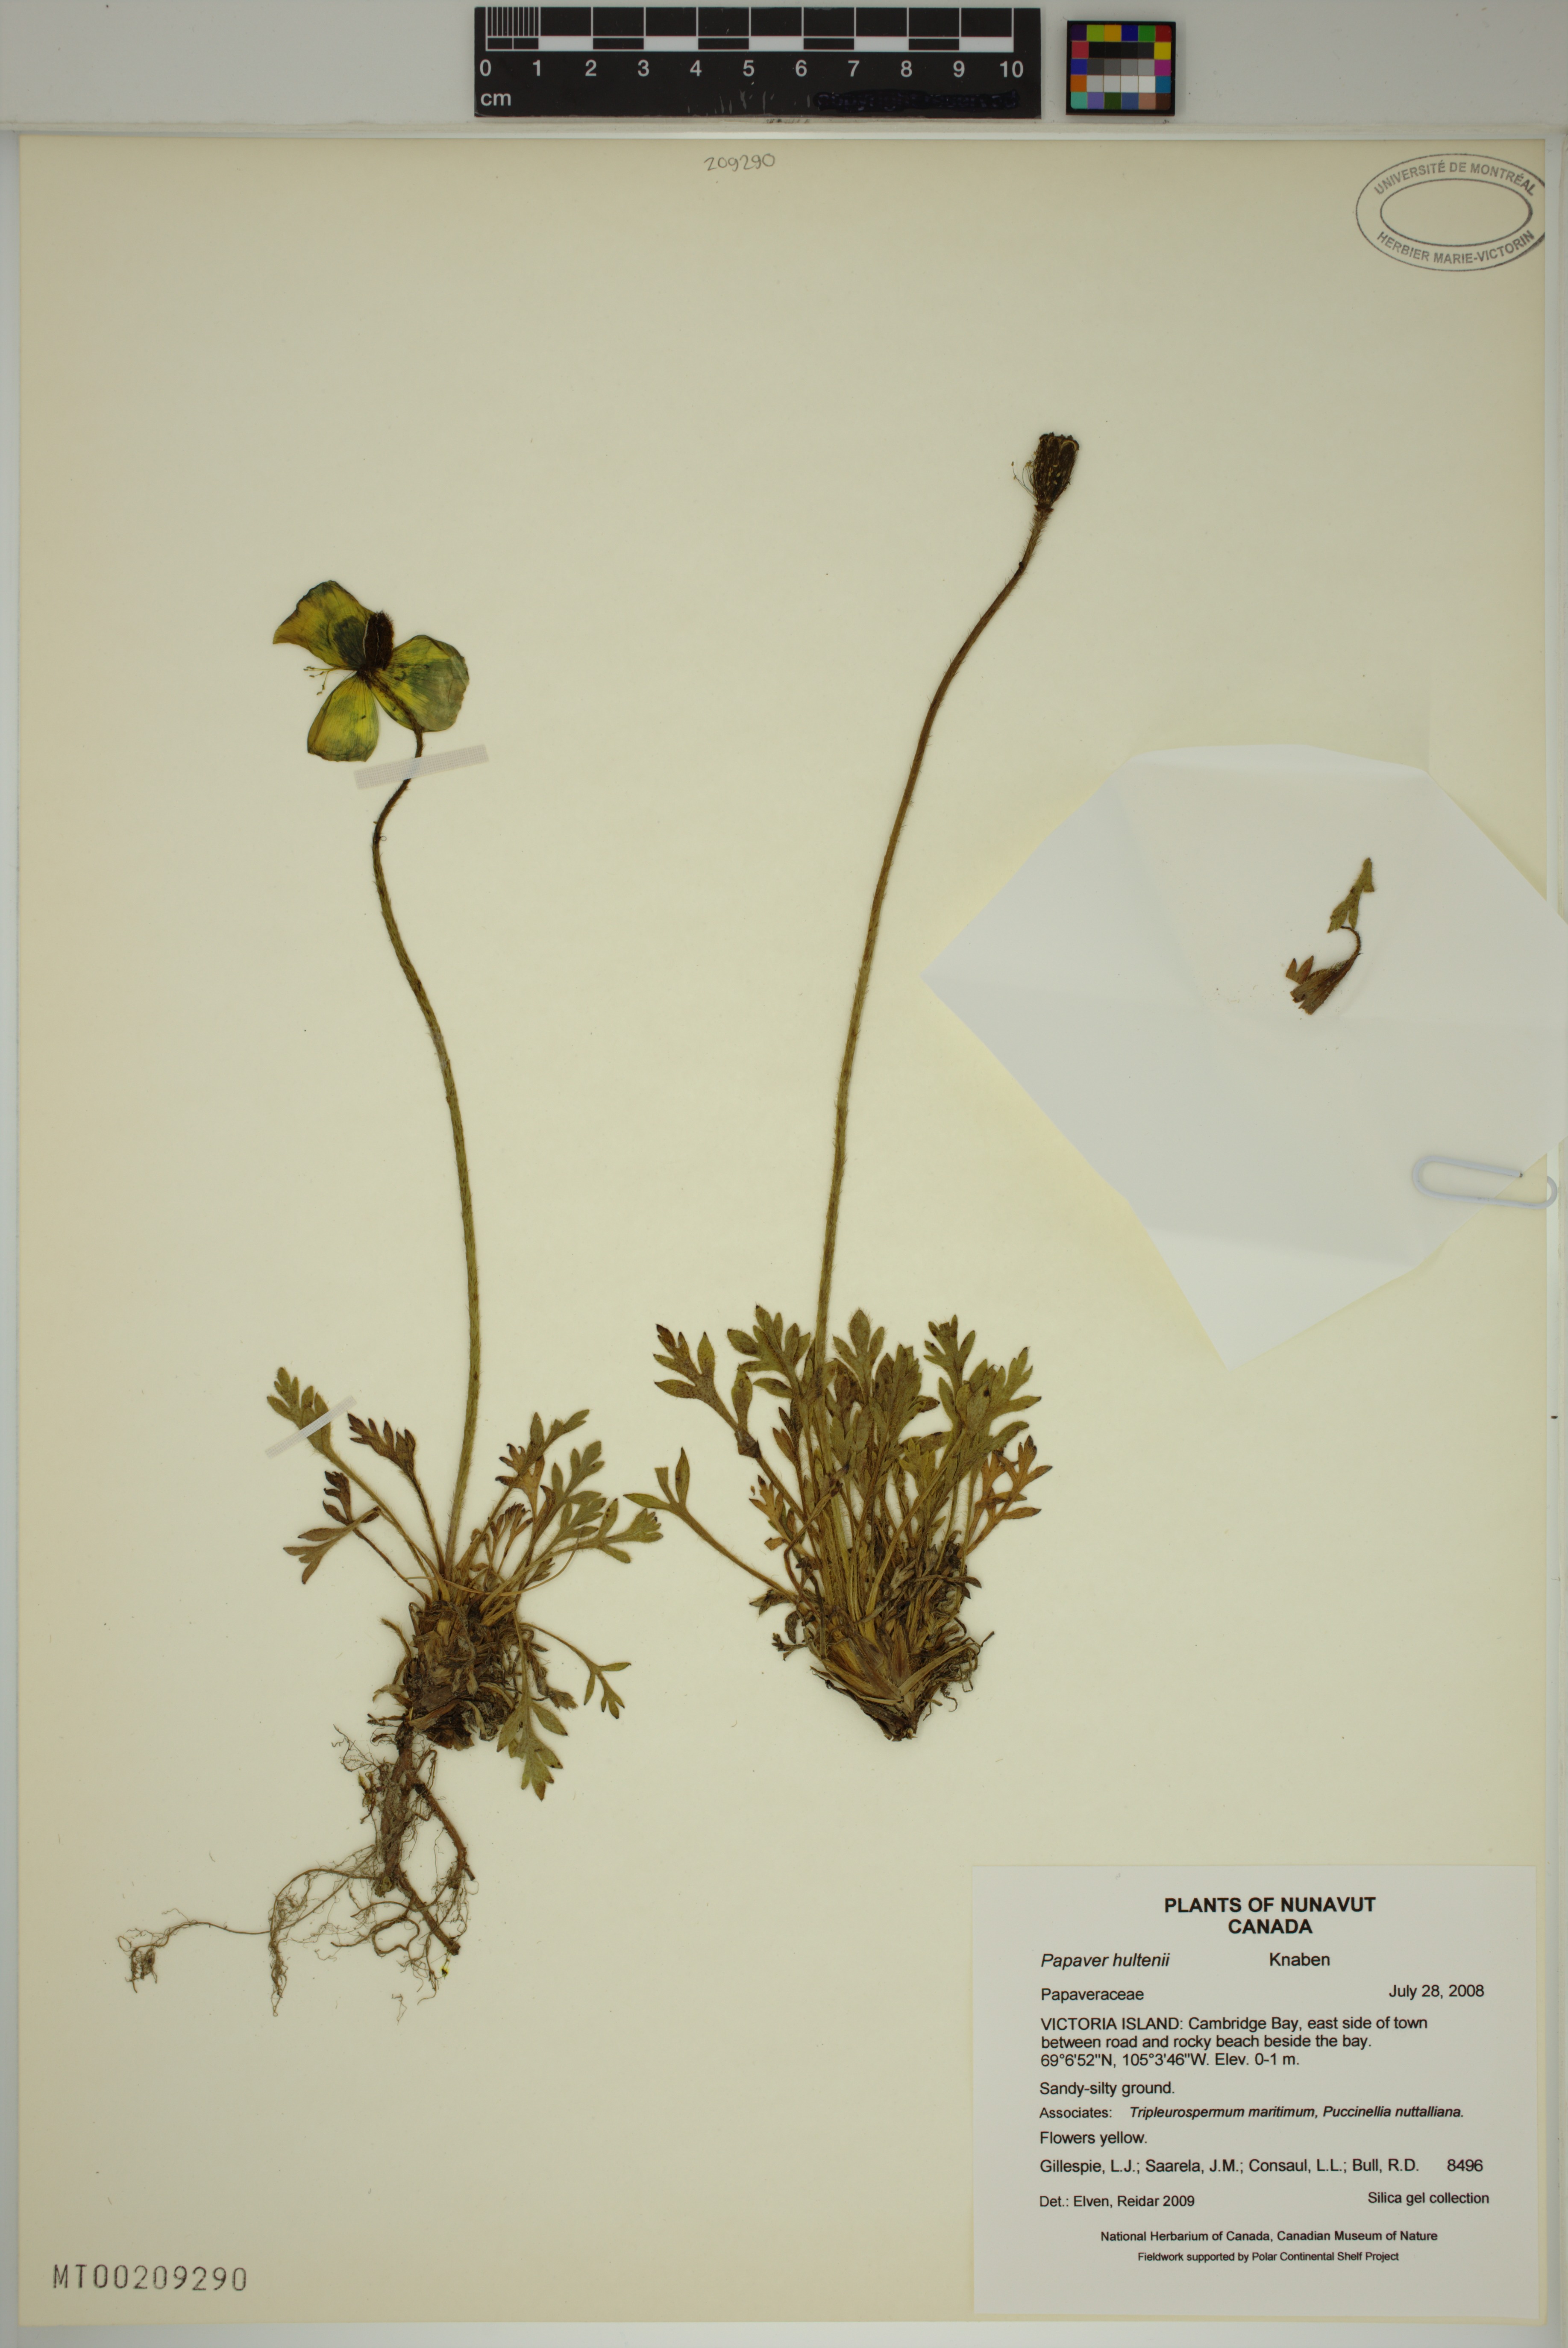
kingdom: Plantae
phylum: Tracheophyta
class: Magnoliopsida
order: Ranunculales
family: Papaveraceae
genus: Papaver
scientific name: Papaver lapponicum
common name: Lapland poppy
